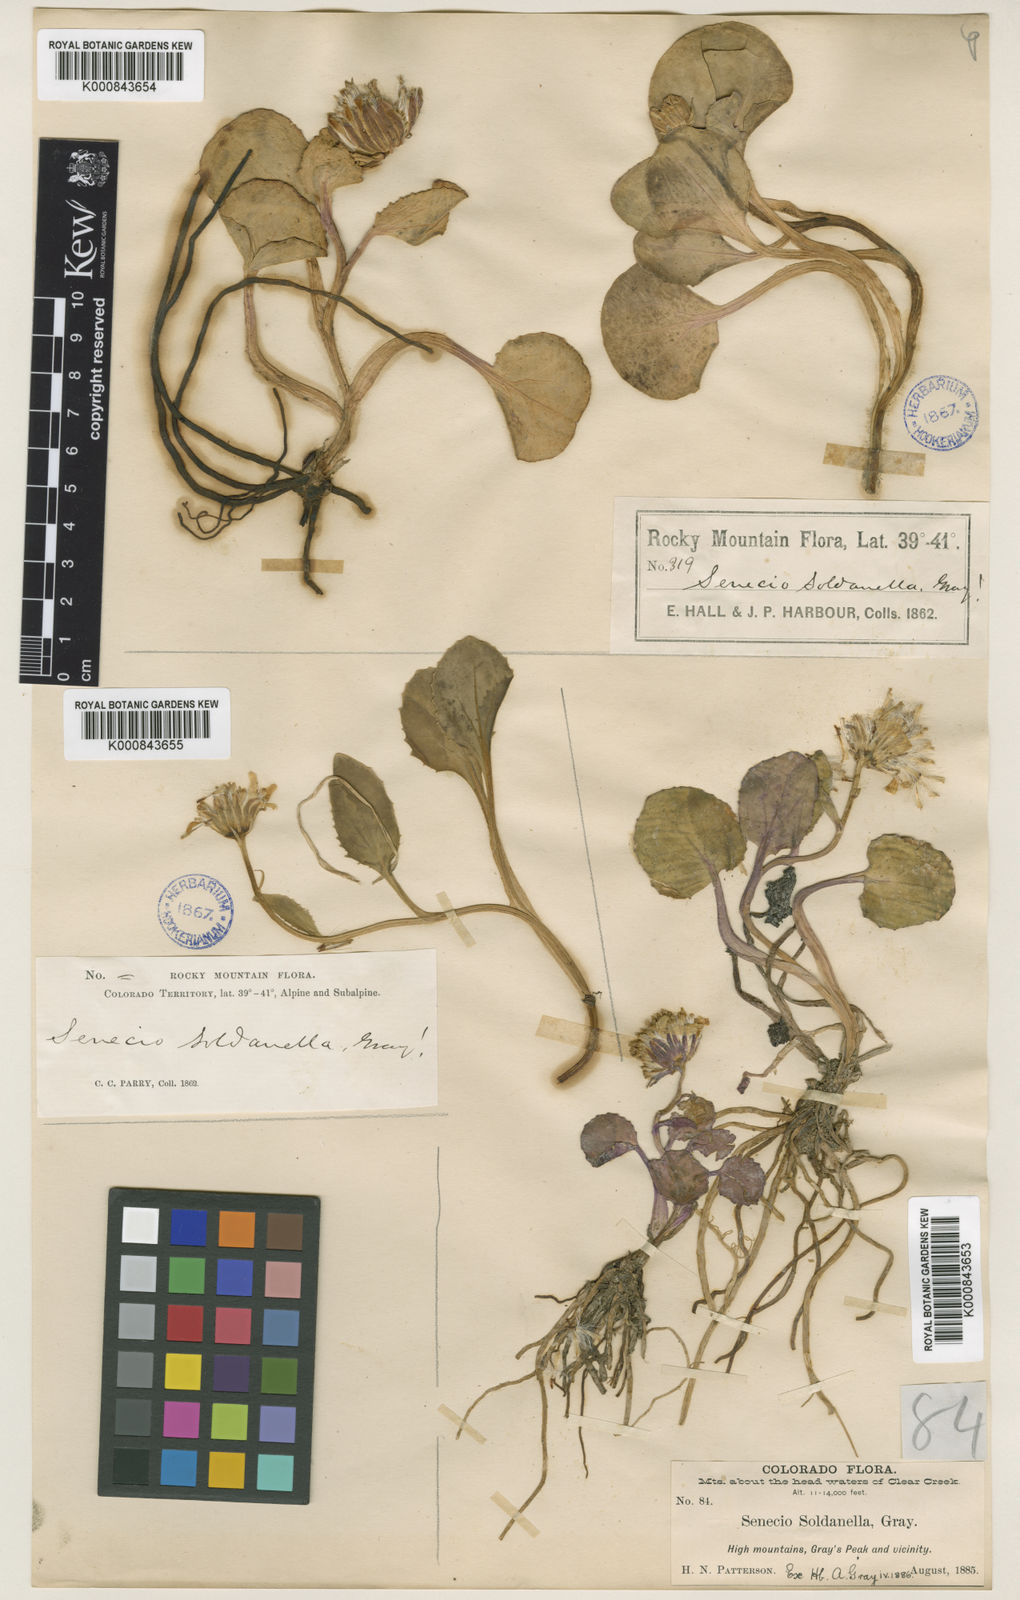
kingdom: Plantae
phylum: Tracheophyta
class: Magnoliopsida
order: Asterales
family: Asteraceae
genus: Senecio
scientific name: Senecio soldanella
